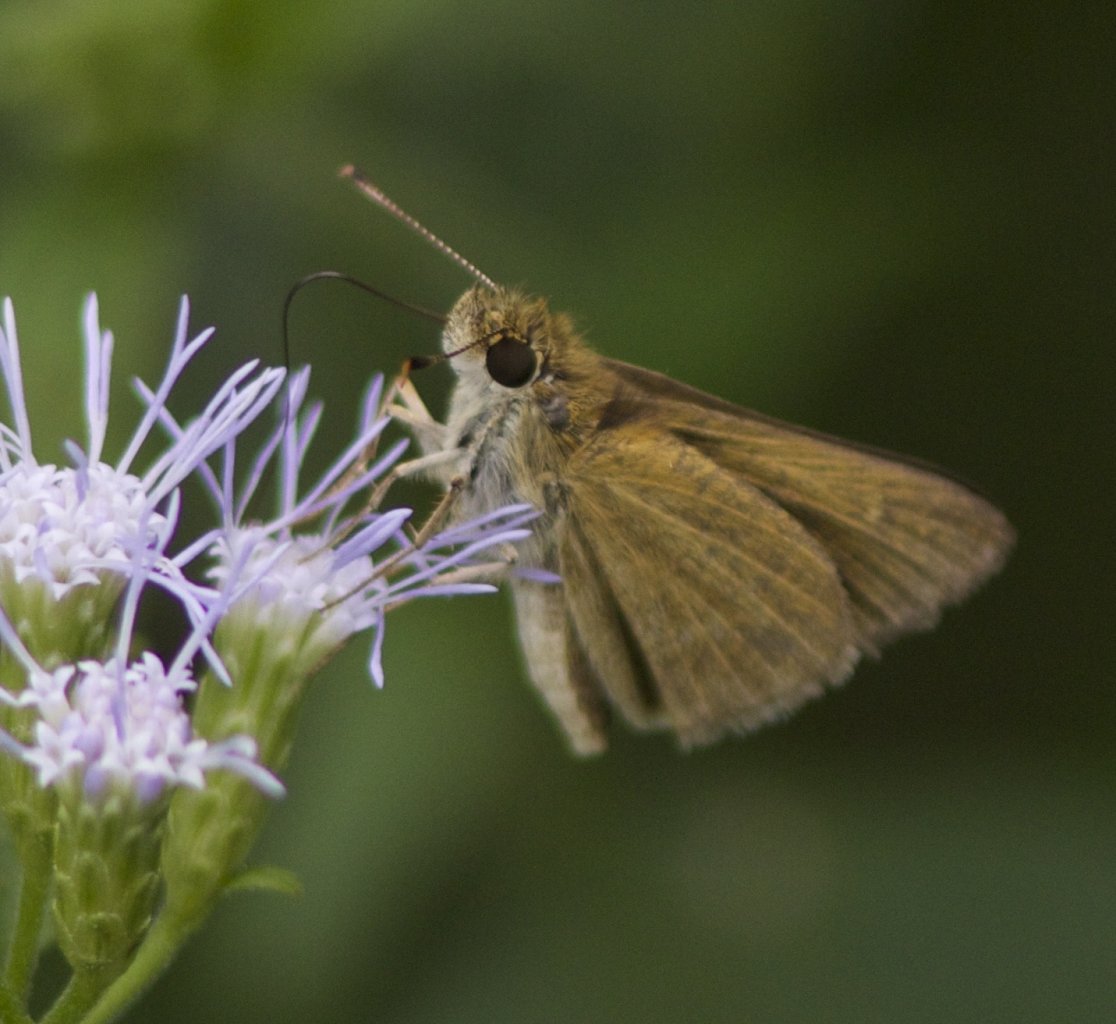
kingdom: Animalia
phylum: Arthropoda
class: Insecta
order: Lepidoptera
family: Hesperiidae
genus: Synapte
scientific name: Synapte malitiosa
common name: Malicious Skipper
